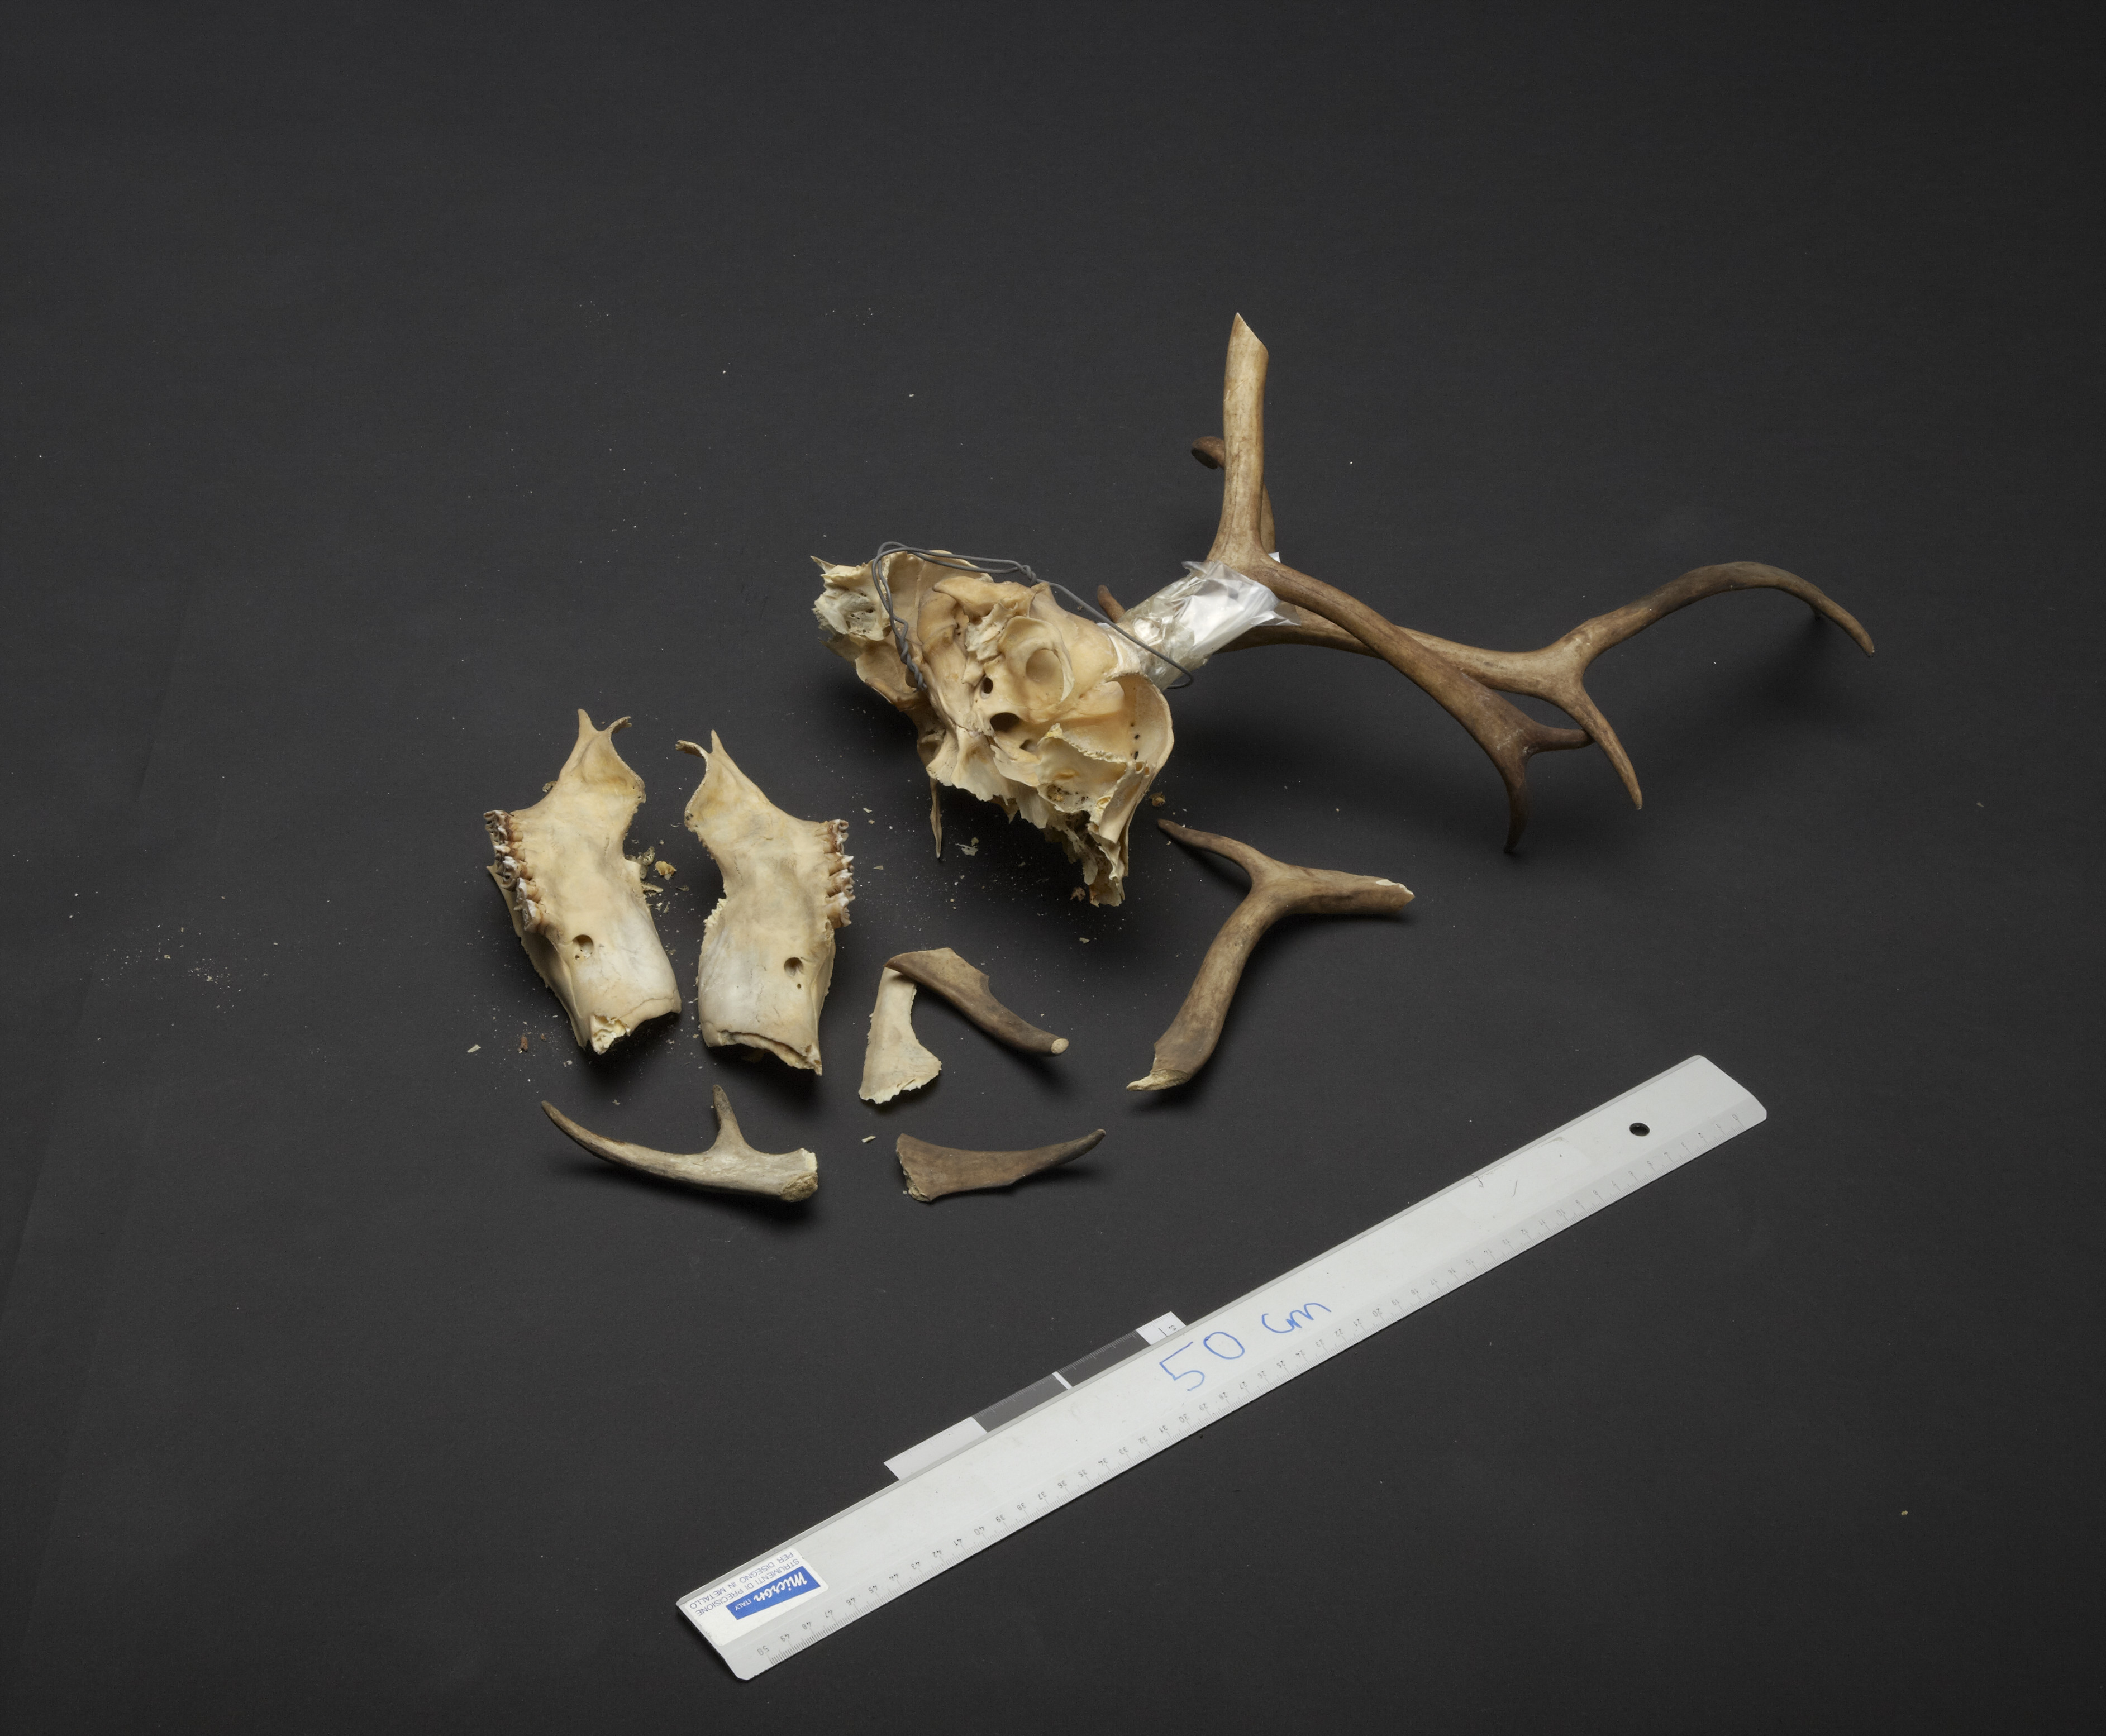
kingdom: Animalia
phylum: Chordata
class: Mammalia
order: Artiodactyla
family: Cervidae
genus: Rangifer
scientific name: Rangifer tarandus
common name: Reindeer
